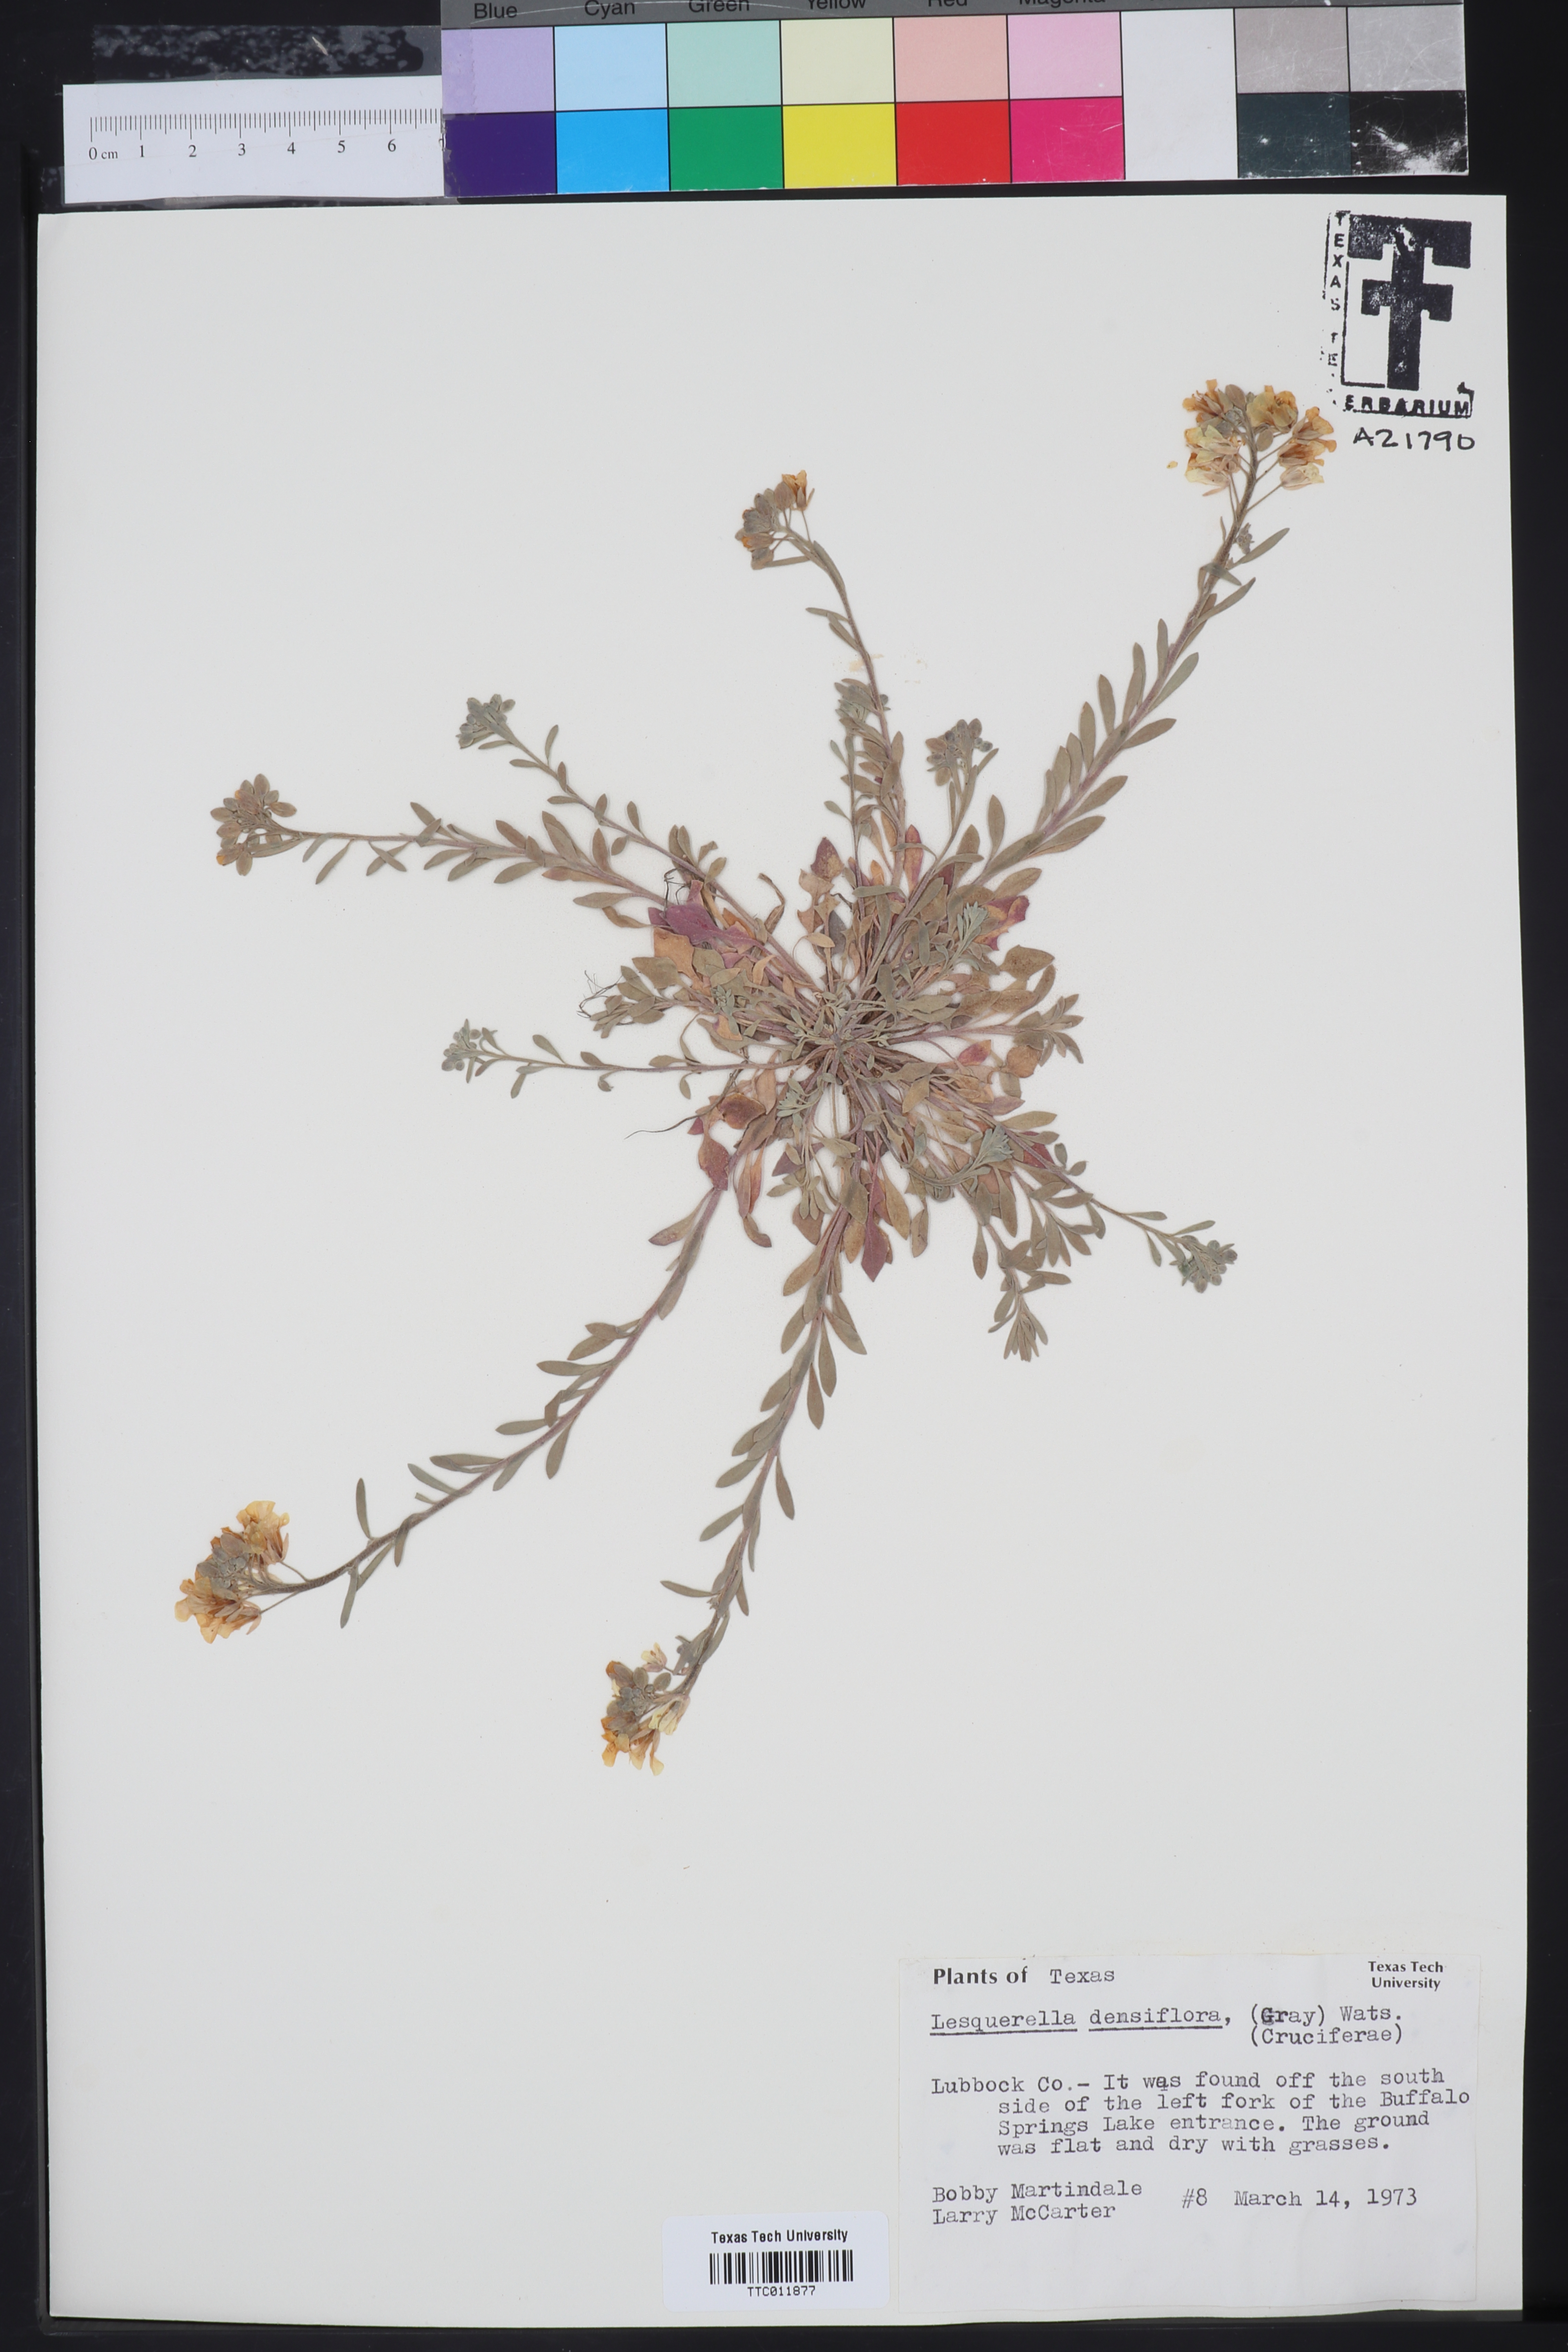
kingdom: Plantae
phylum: Tracheophyta
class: Magnoliopsida
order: Brassicales
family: Brassicaceae
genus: Physaria
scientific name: Physaria densiflora
